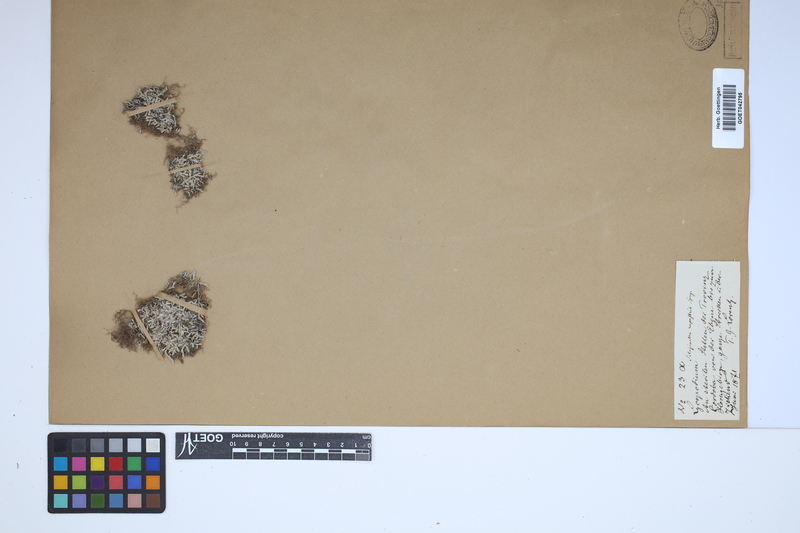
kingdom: Plantae
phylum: Tracheophyta
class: Lycopodiopsida
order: Selaginellales
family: Selaginellaceae
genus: Selaginella
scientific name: Selaginella rupestris
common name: Dwarf spikemoss
